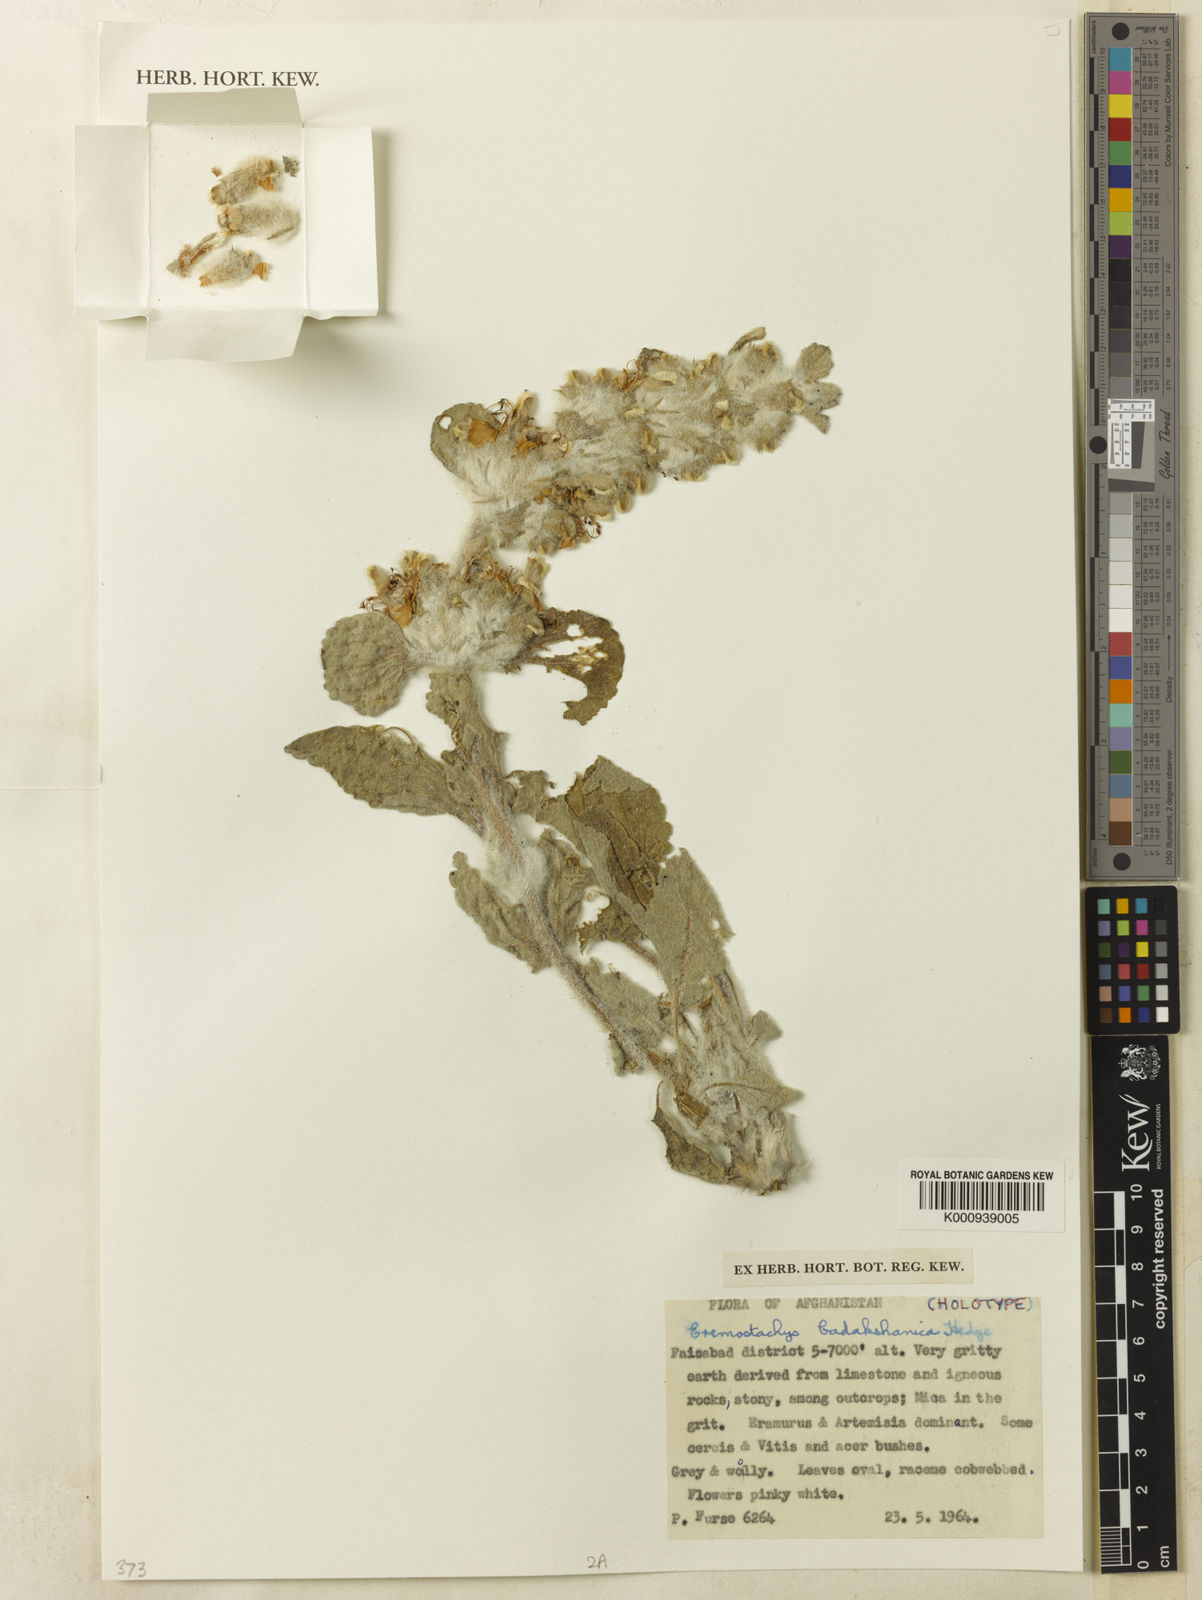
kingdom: Plantae
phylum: Tracheophyta
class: Magnoliopsida
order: Lamiales
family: Lamiaceae
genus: Phlomoides
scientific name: Phlomoides badakshanica
